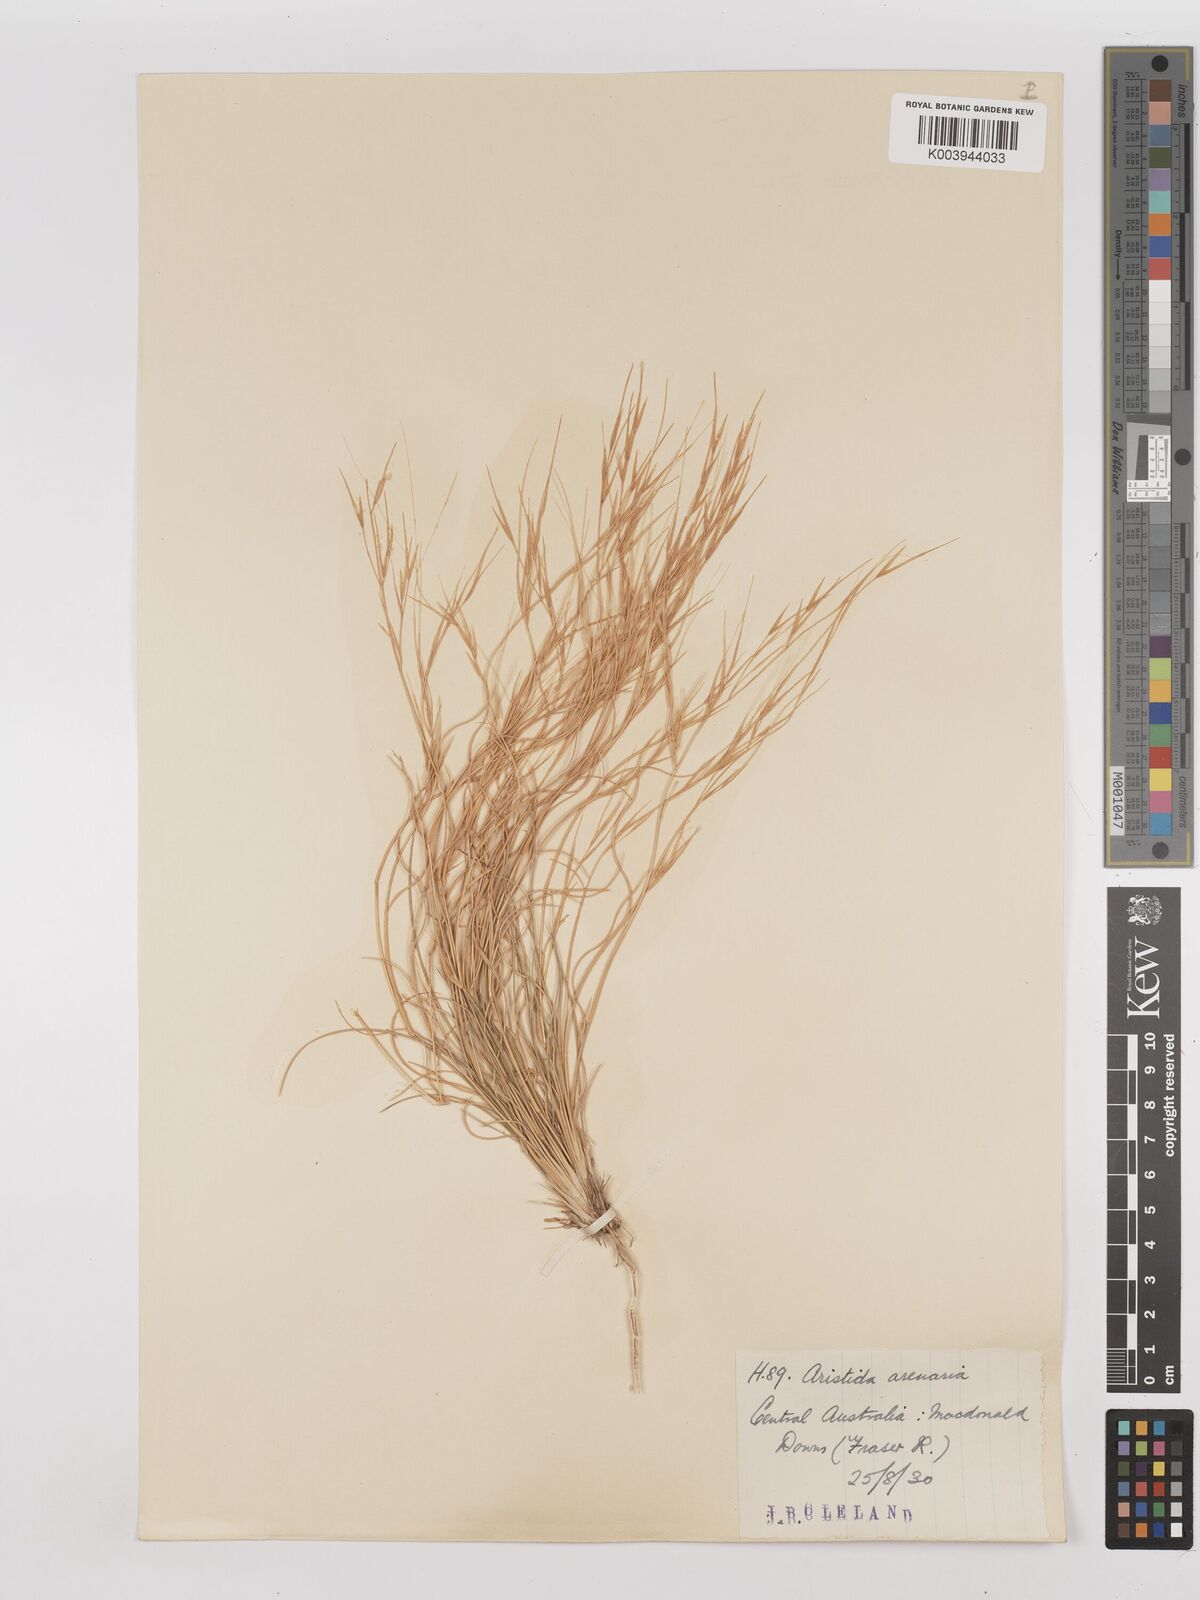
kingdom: Plantae
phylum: Tracheophyta
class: Liliopsida
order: Poales
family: Poaceae
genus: Aristida
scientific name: Aristida contorta
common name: Bunch kerosene grass
